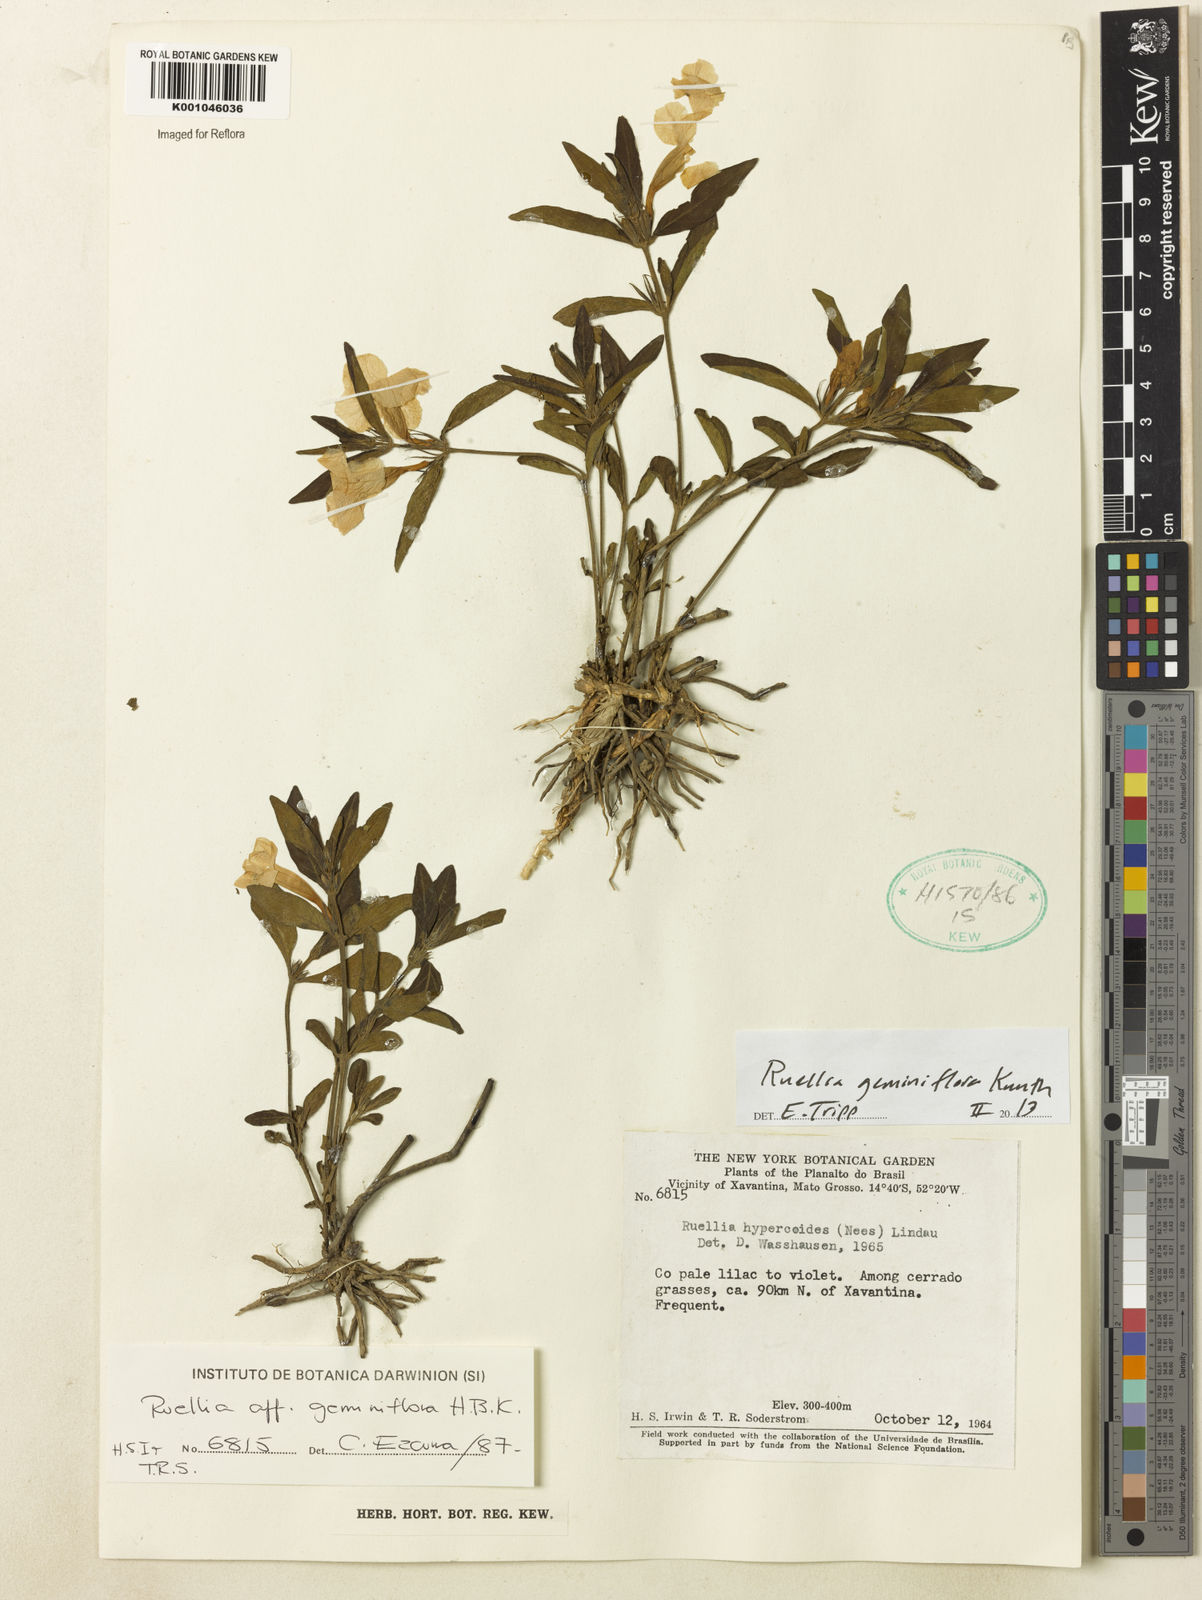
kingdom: Plantae
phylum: Tracheophyta
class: Magnoliopsida
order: Lamiales
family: Acanthaceae
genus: Ruellia
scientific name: Ruellia geminiflora
